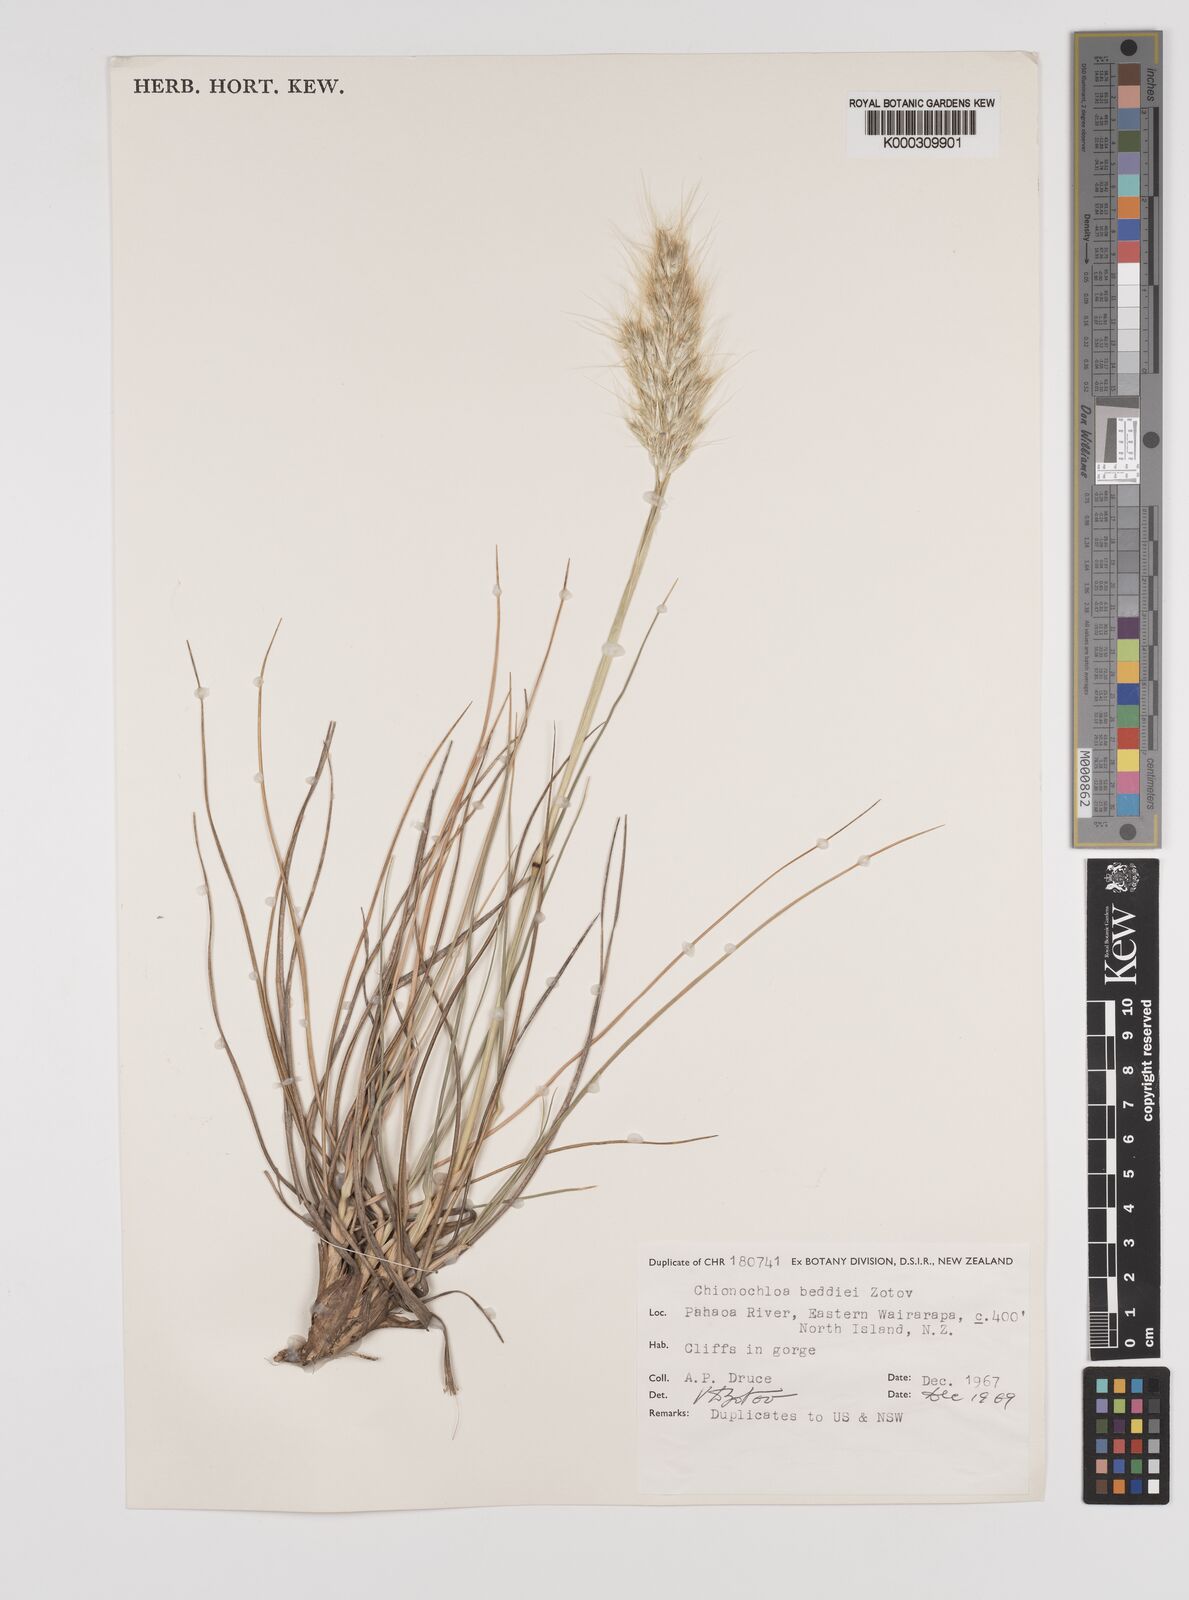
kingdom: Plantae
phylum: Tracheophyta
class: Liliopsida
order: Poales
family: Poaceae
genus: Chionochloa
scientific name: Chionochloa beddiei
